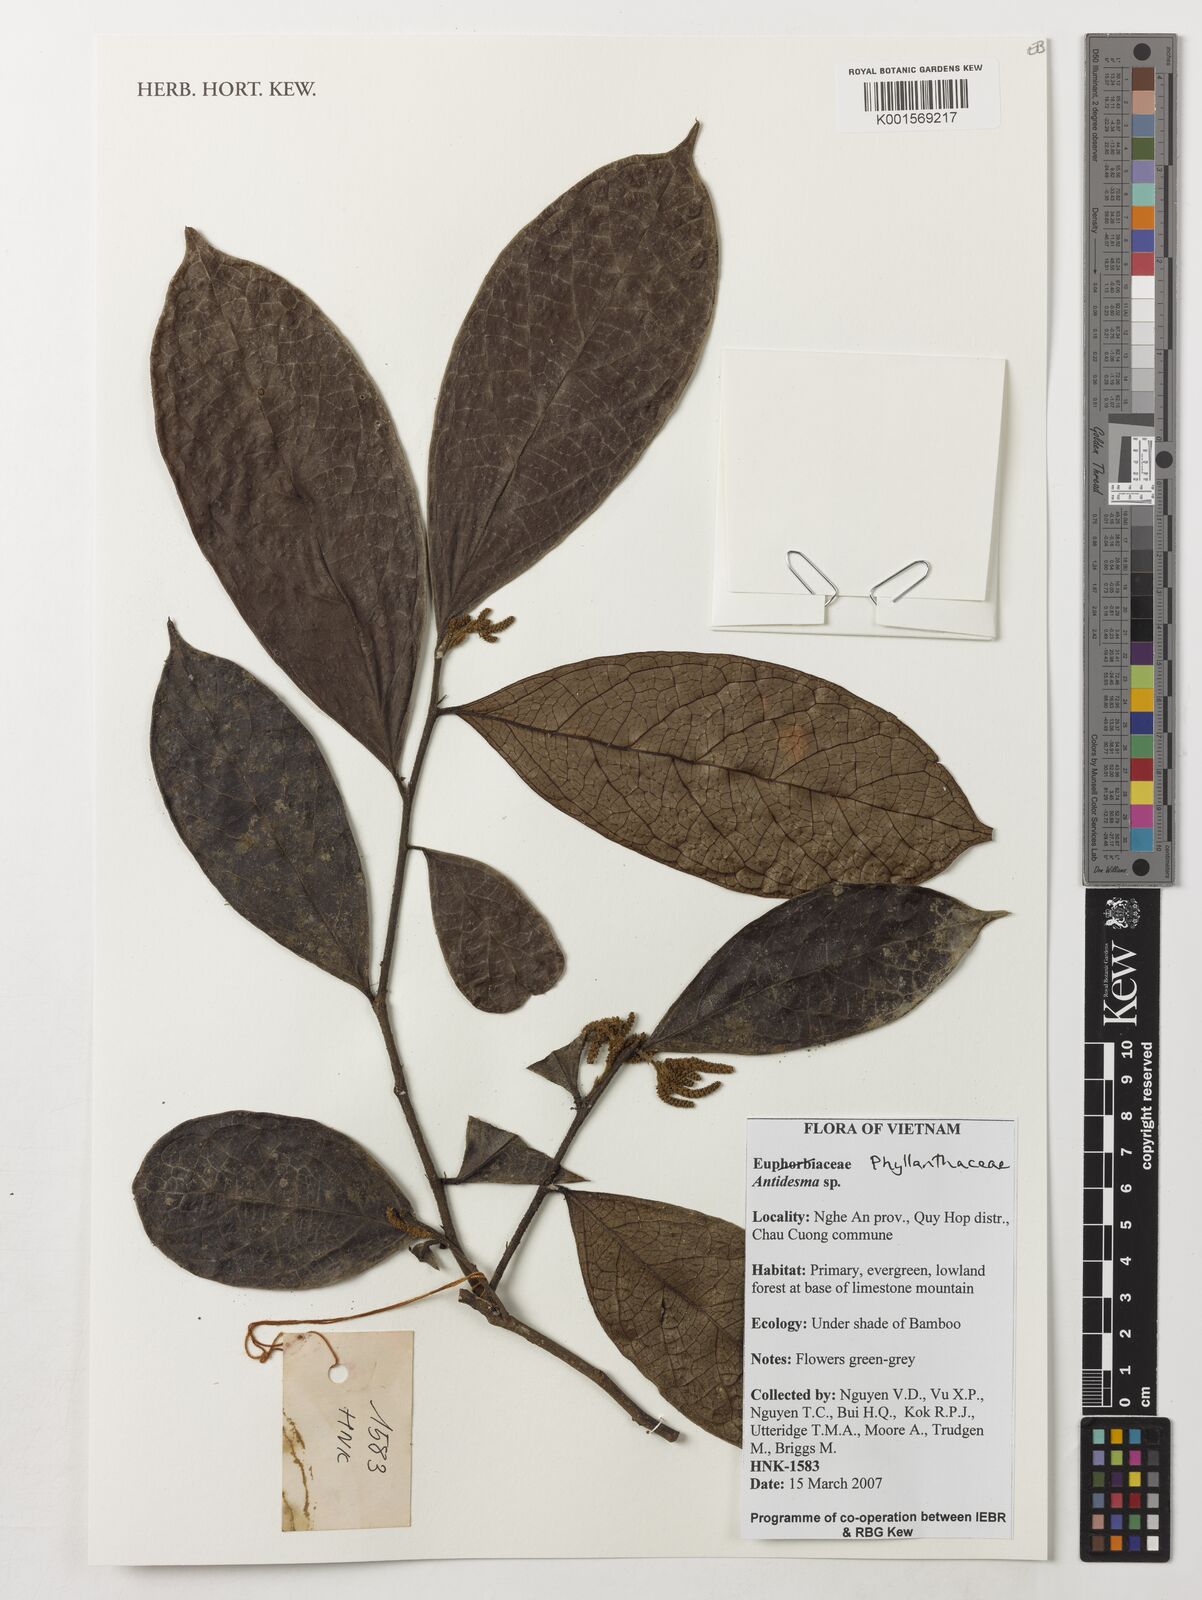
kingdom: Plantae
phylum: Tracheophyta
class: Magnoliopsida
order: Malpighiales
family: Phyllanthaceae
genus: Antidesma
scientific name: Antidesma
